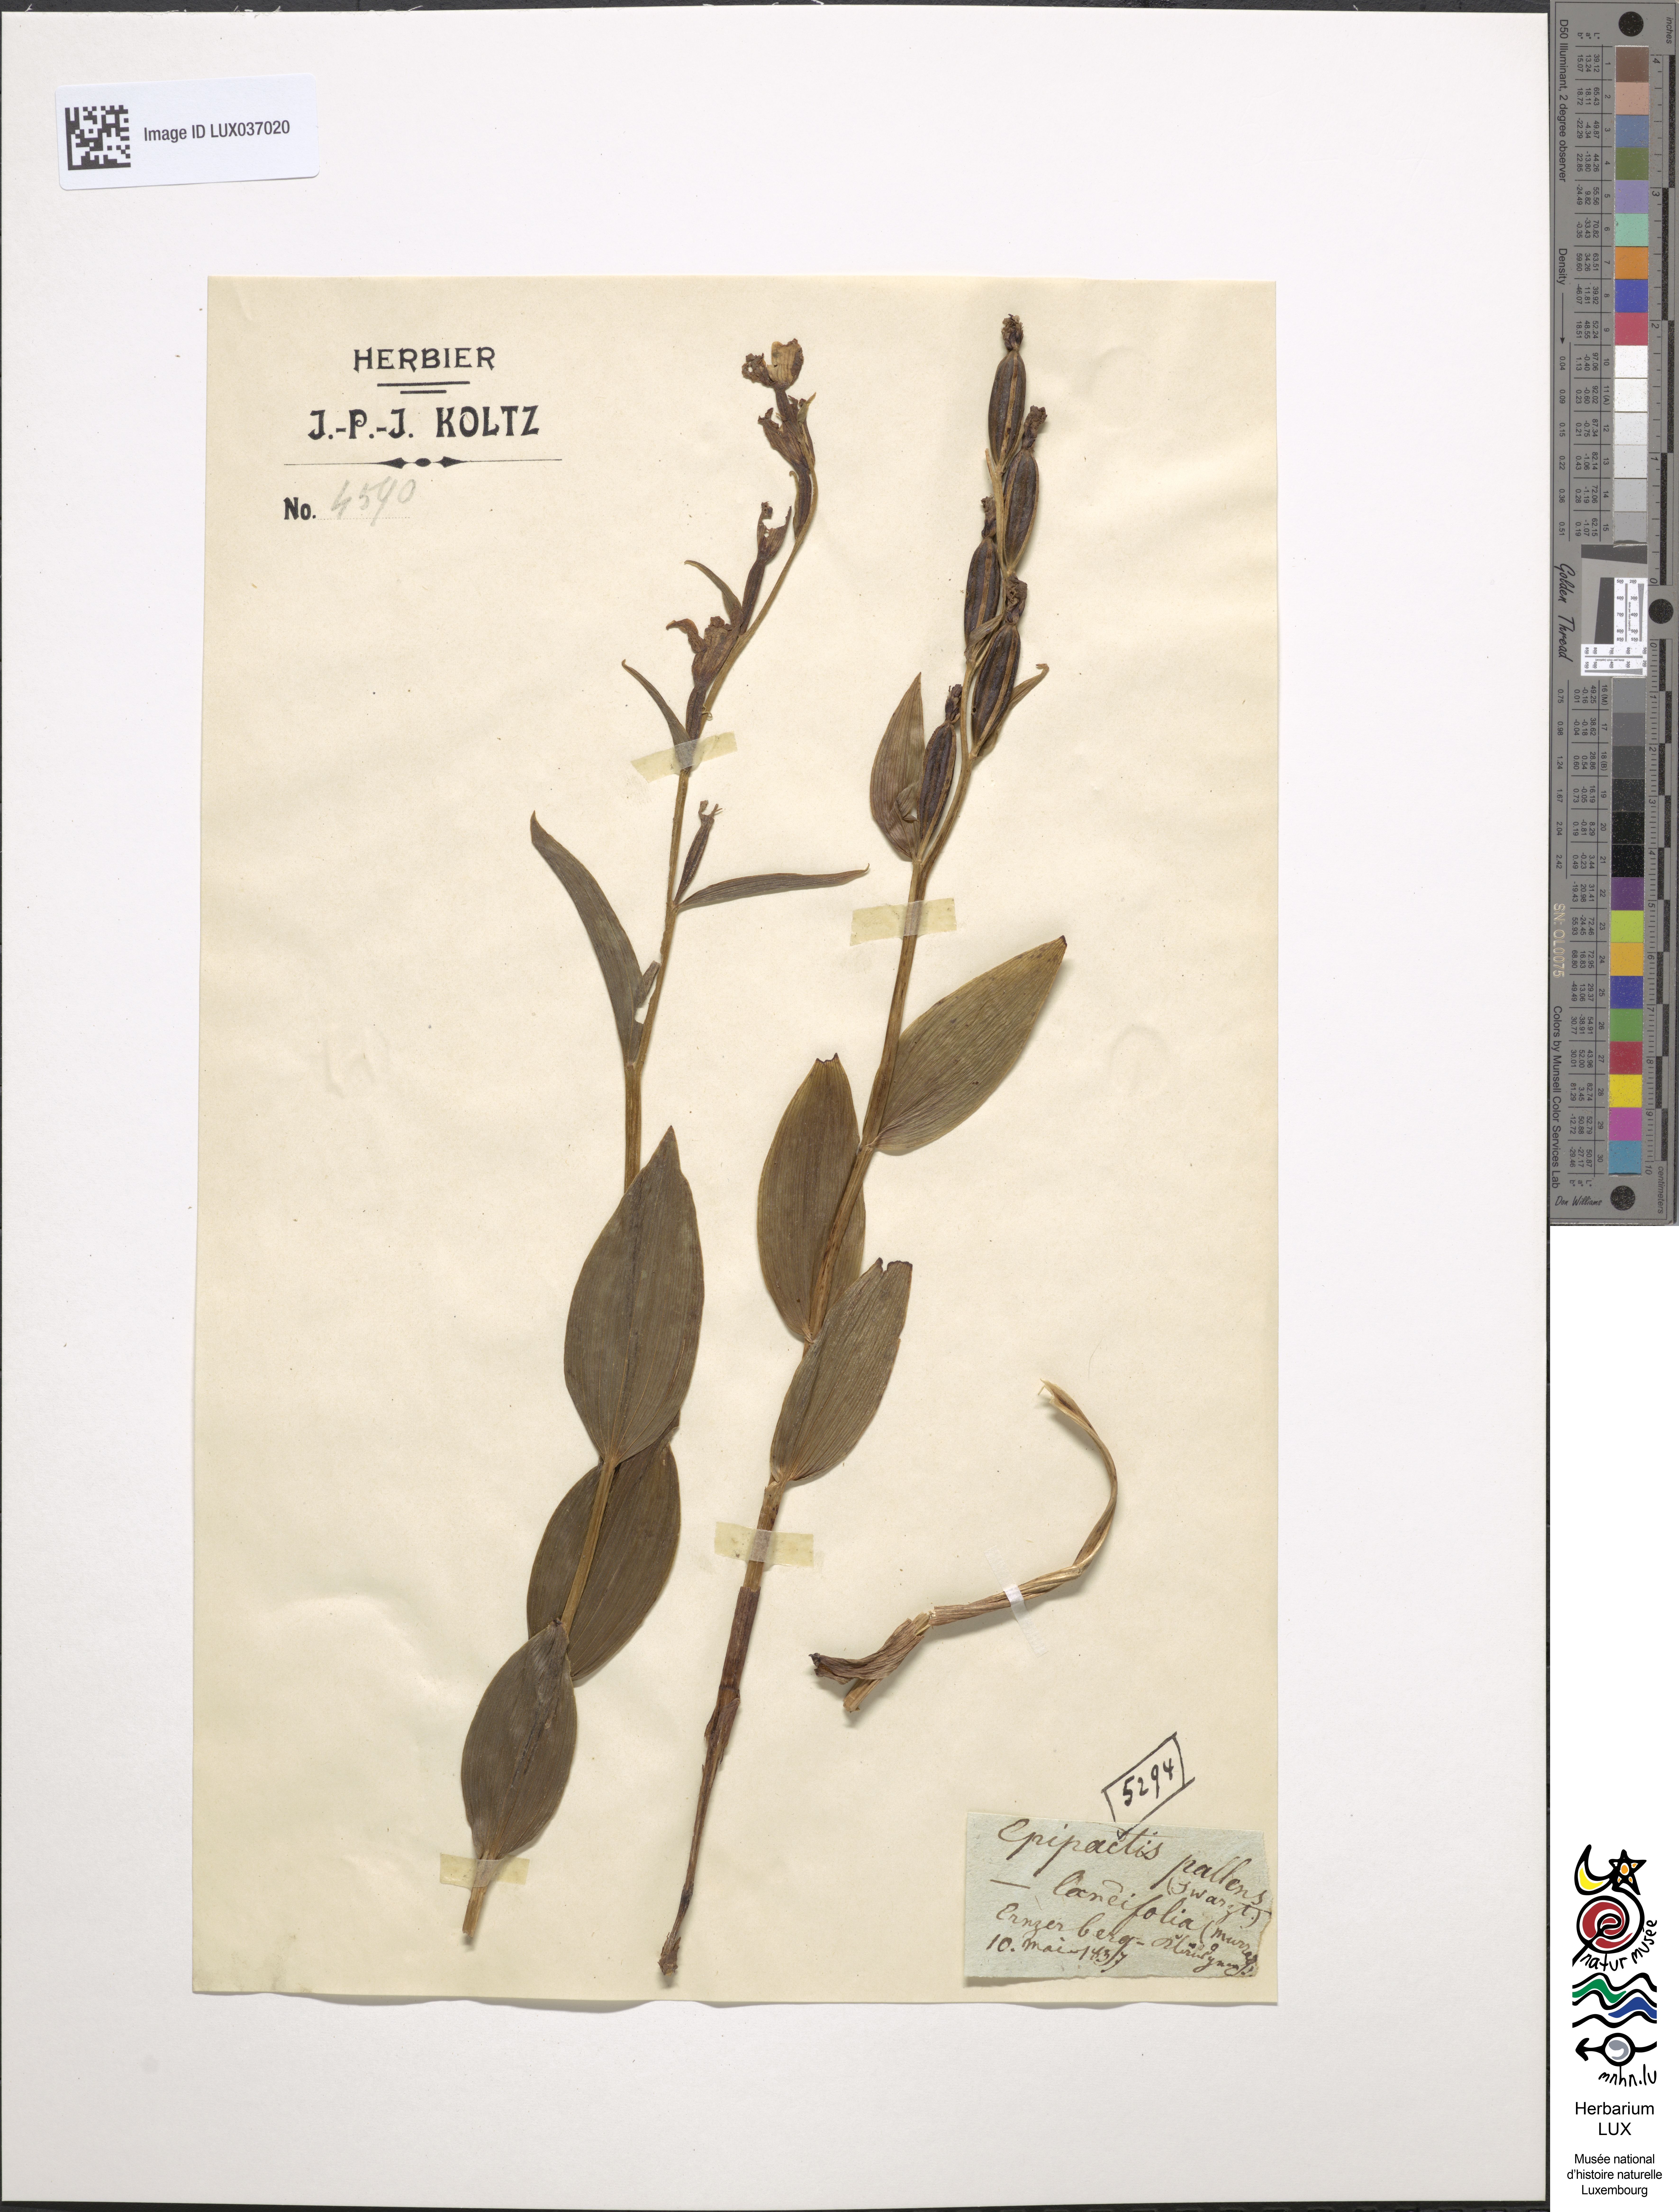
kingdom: Plantae
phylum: Tracheophyta
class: Liliopsida
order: Asparagales
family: Orchidaceae
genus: Cephalanthera
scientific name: Cephalanthera longifolia
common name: Narrow-leaved helleborine
